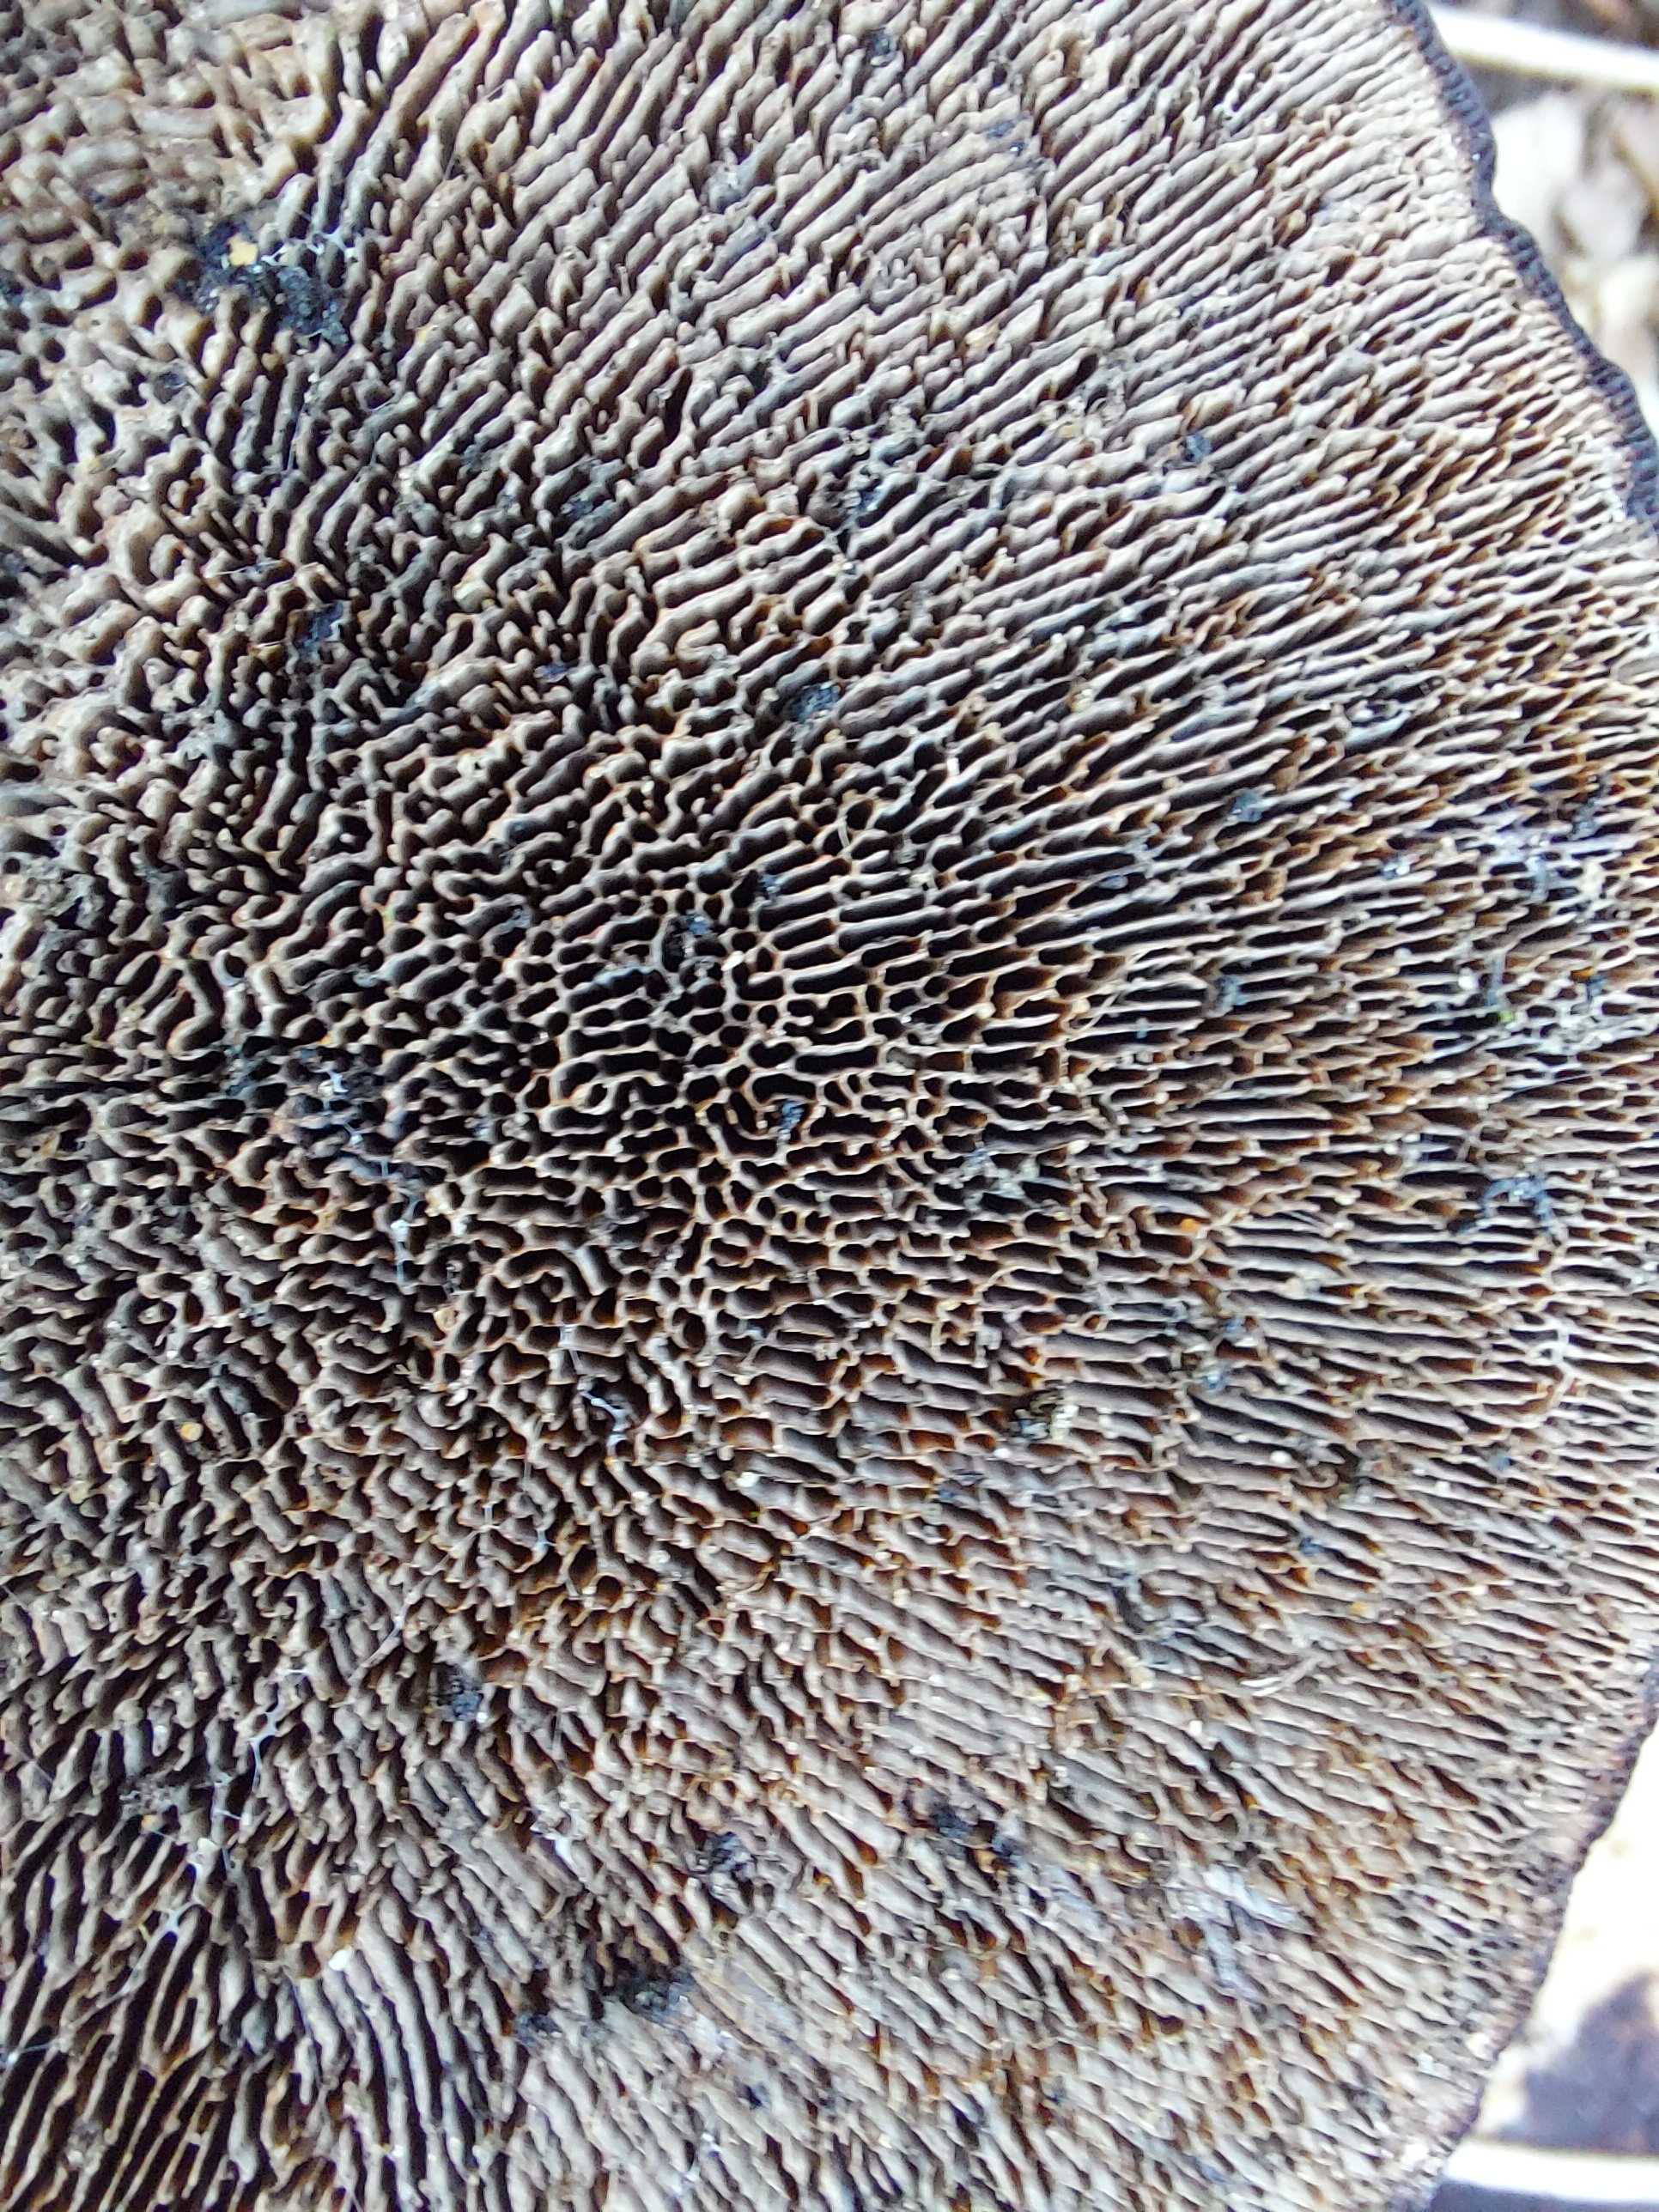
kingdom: Fungi
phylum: Basidiomycota
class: Agaricomycetes
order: Polyporales
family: Polyporaceae
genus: Daedaleopsis
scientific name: Daedaleopsis confragosa
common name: rødmende læderporesvamp
